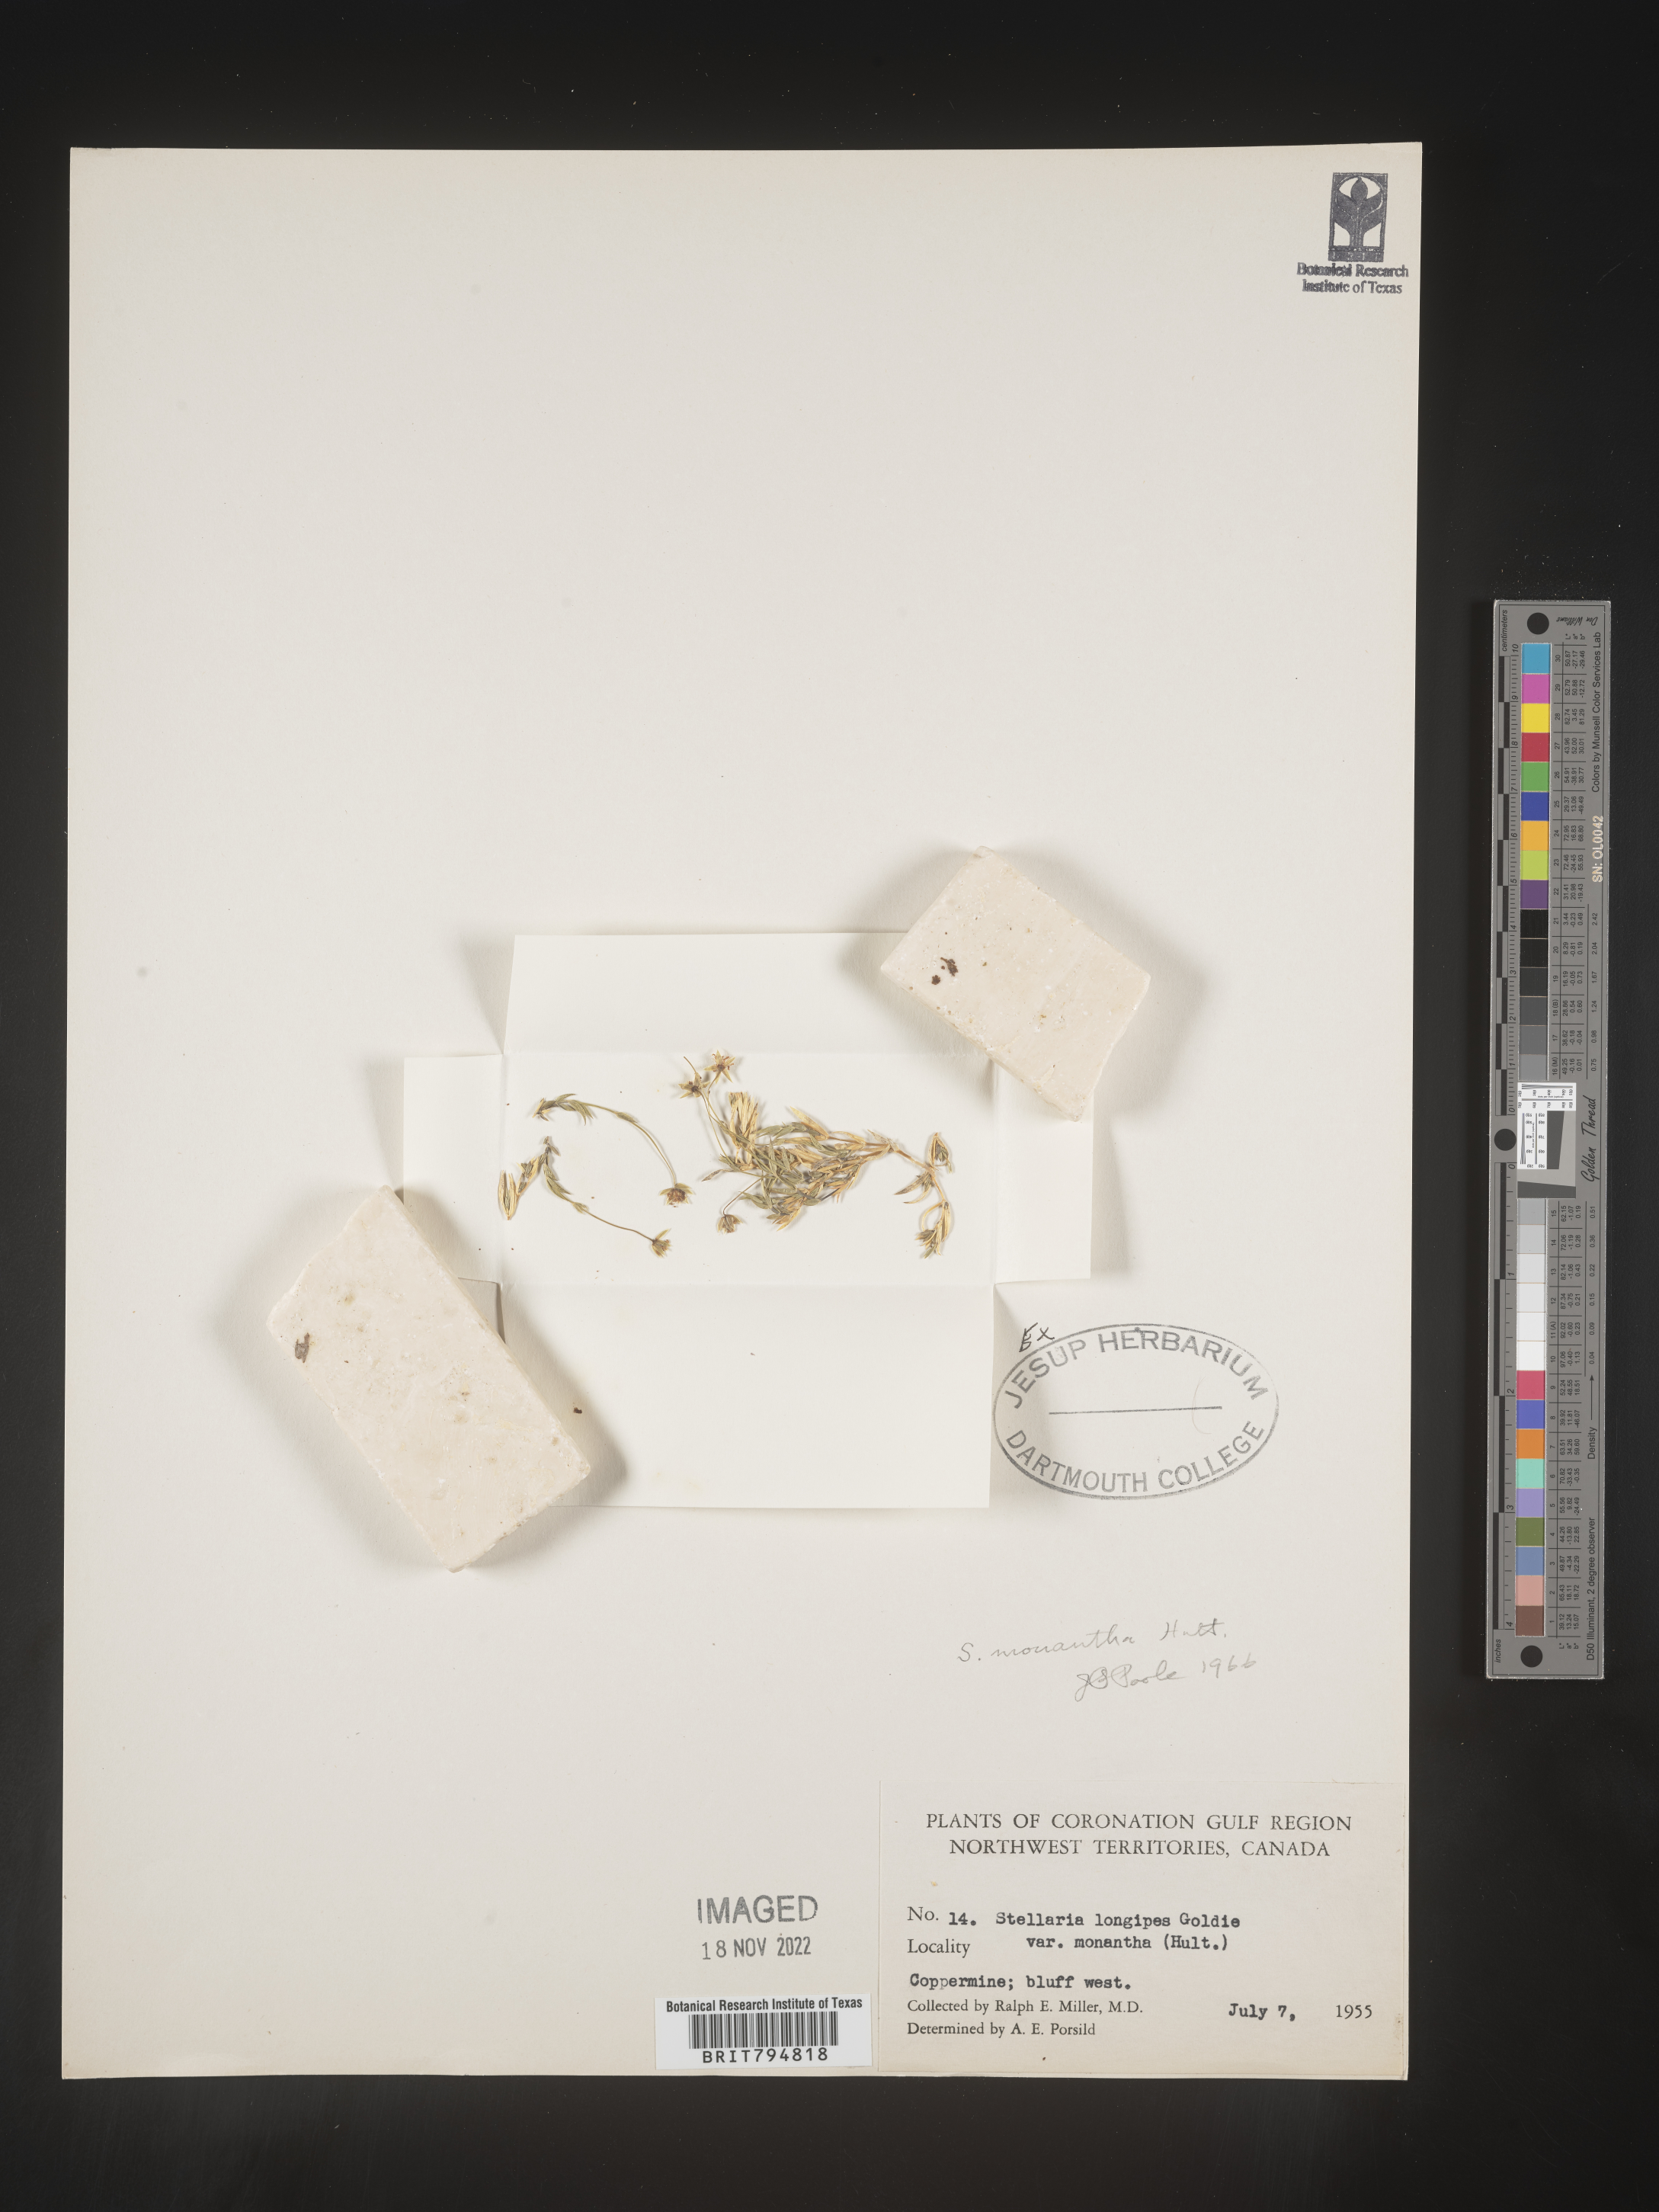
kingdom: Plantae
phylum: Tracheophyta
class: Magnoliopsida
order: Caryophyllales
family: Caryophyllaceae
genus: Stellaria
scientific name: Stellaria longipes
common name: Goldie's starwort
